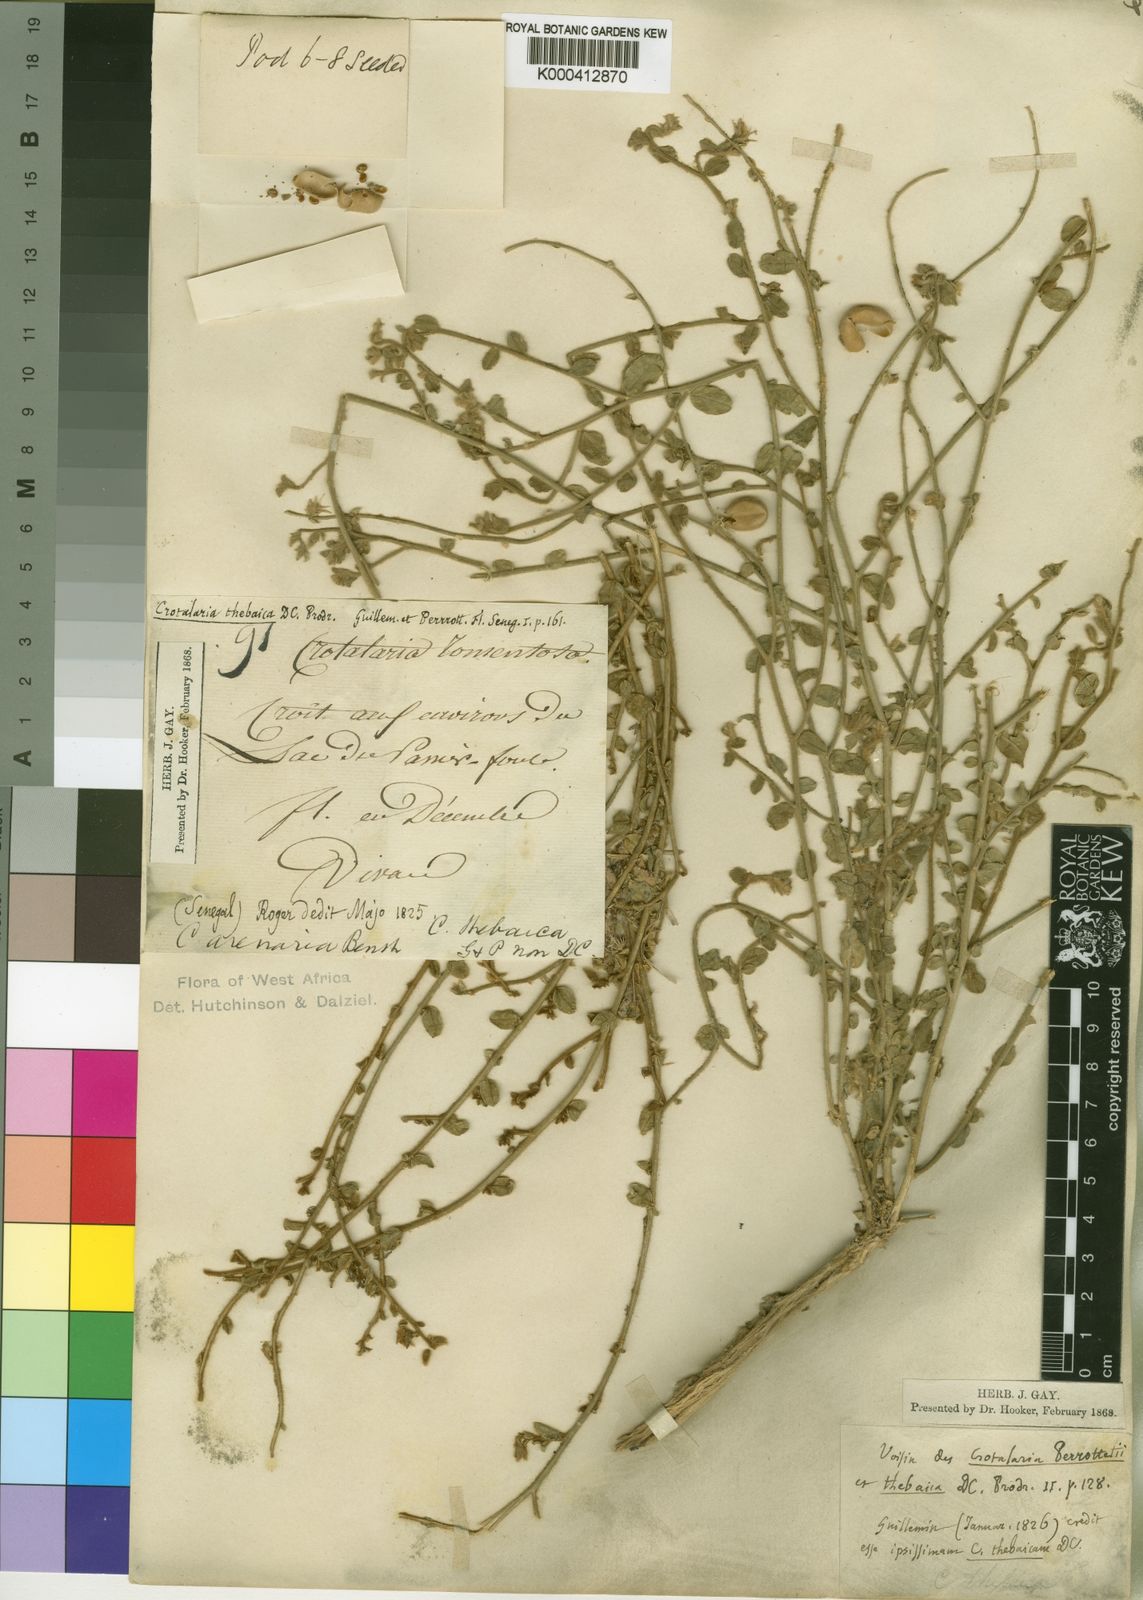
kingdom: Plantae
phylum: Tracheophyta
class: Magnoliopsida
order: Fabales
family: Fabaceae
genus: Crotalaria
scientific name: Crotalaria arenaria
